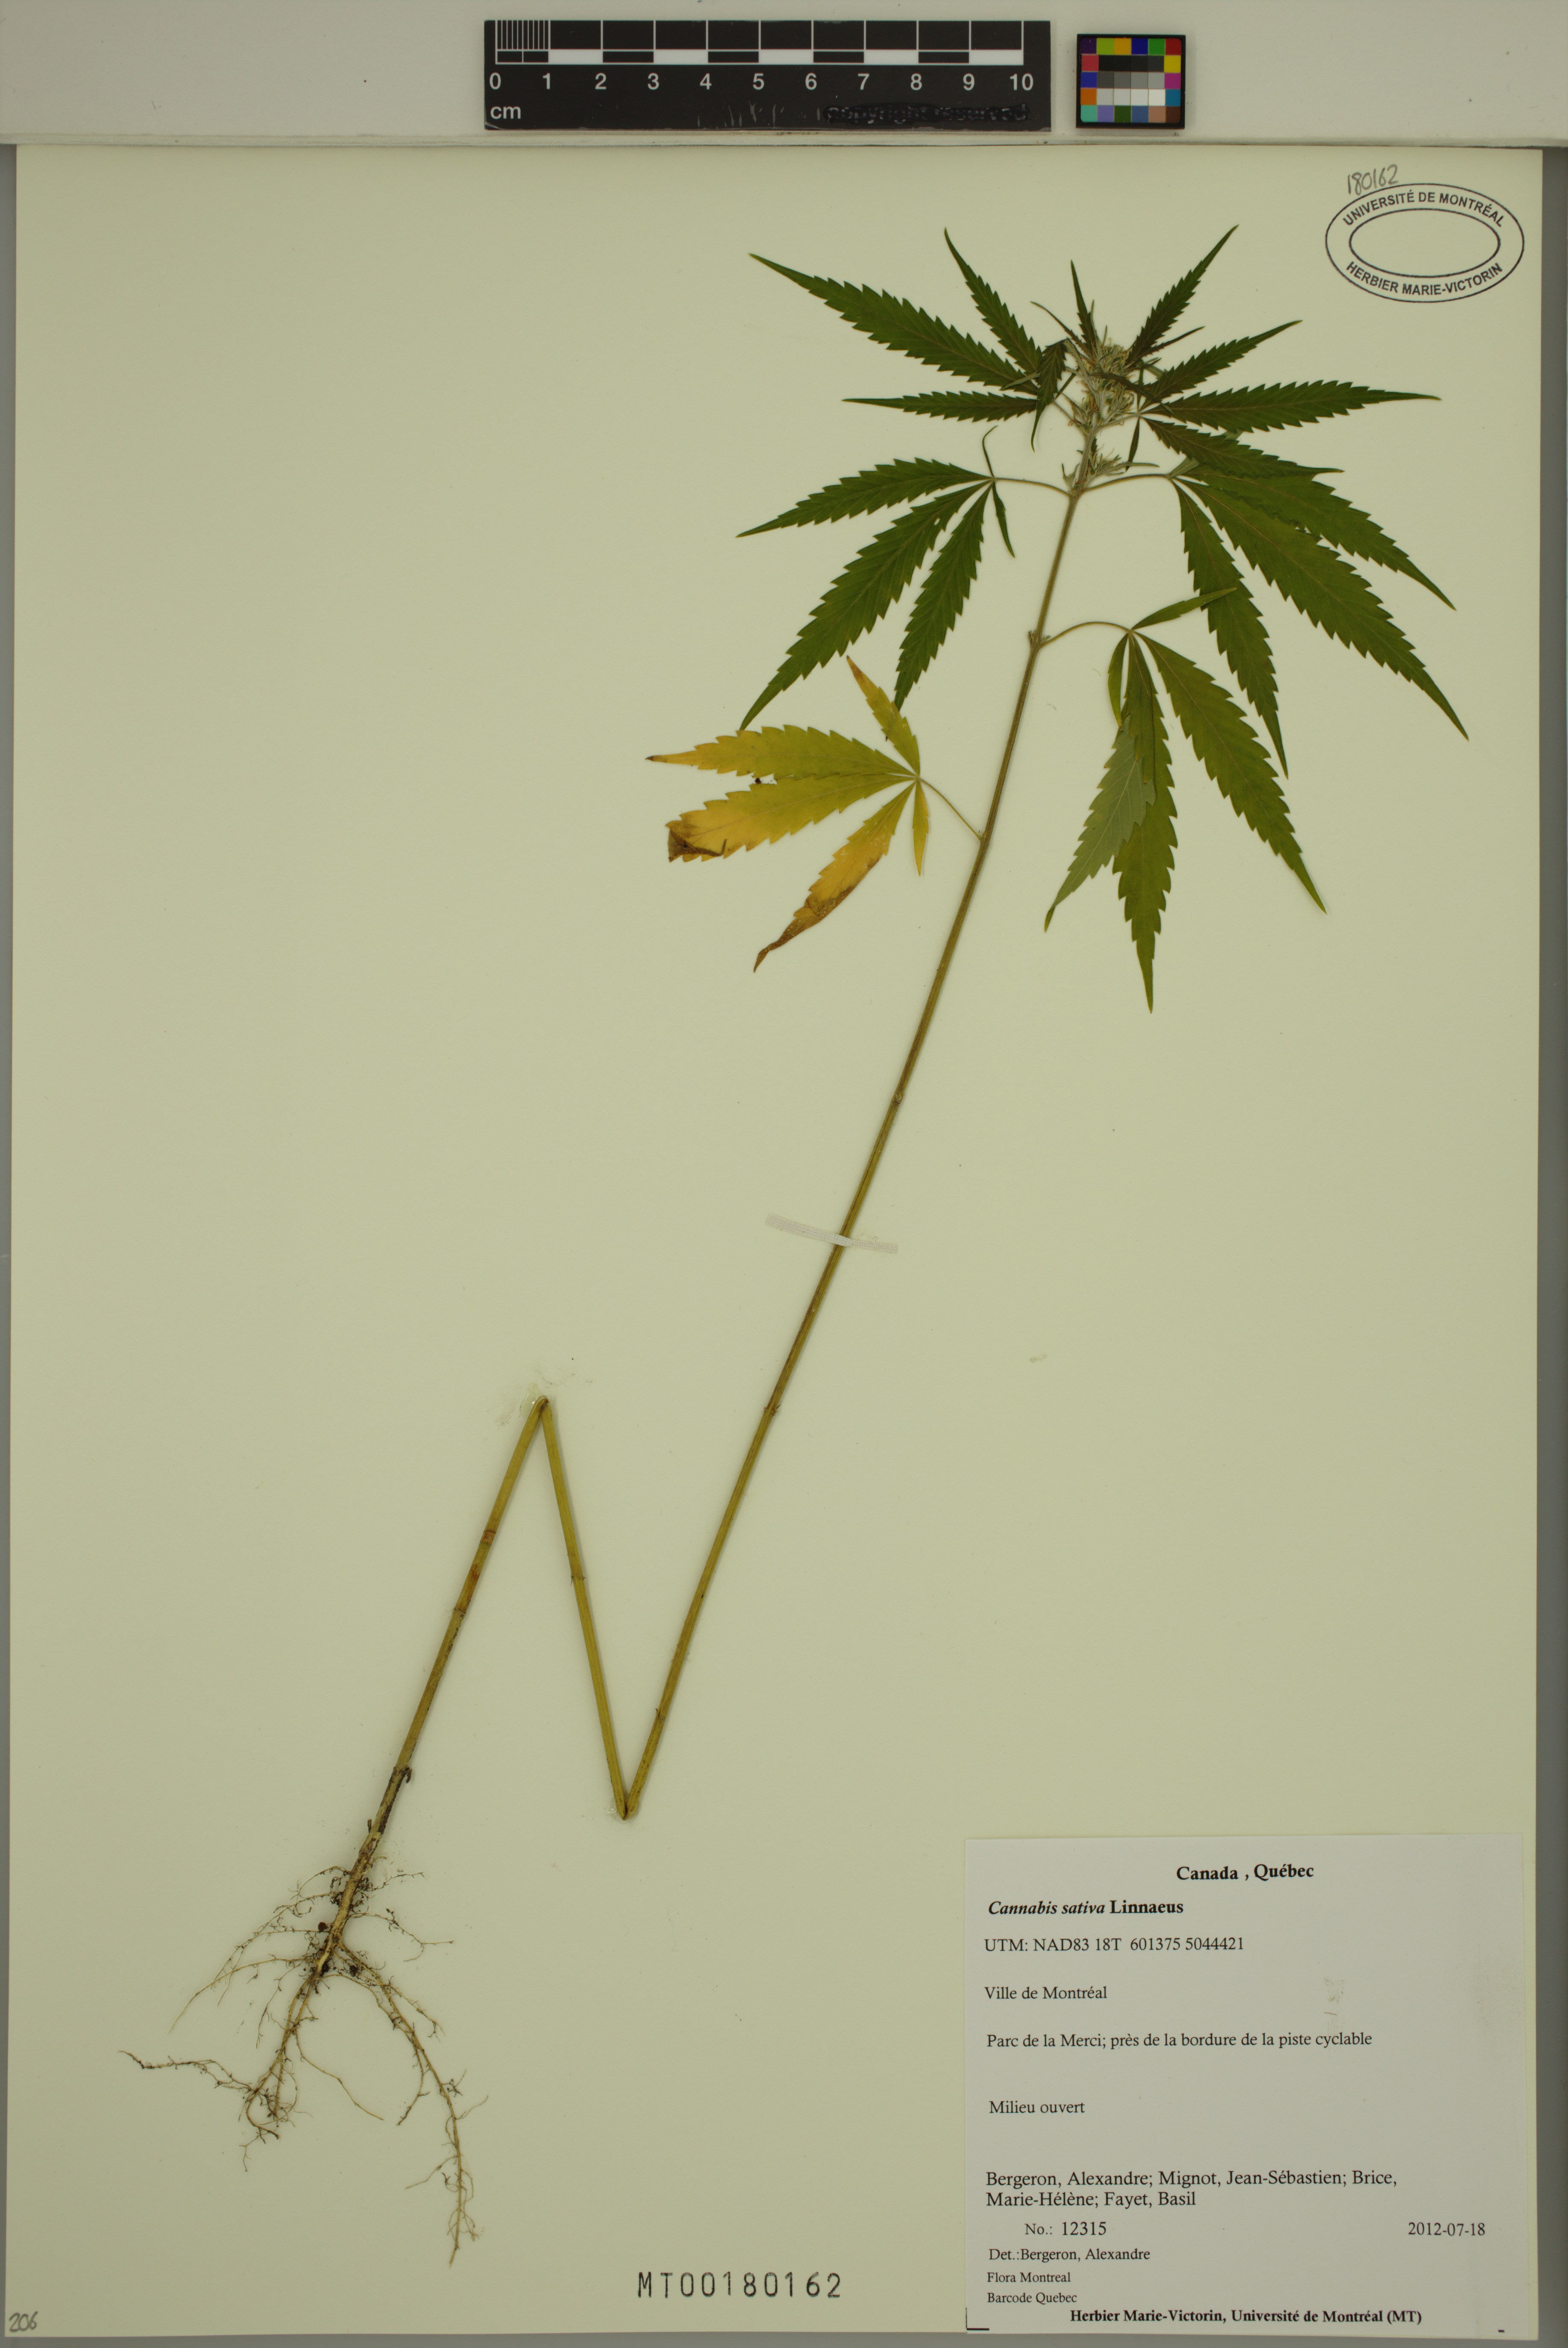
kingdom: Plantae
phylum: Tracheophyta
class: Magnoliopsida
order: Rosales
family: Cannabaceae
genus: Cannabis
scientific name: Cannabis sativa
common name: Hemp
